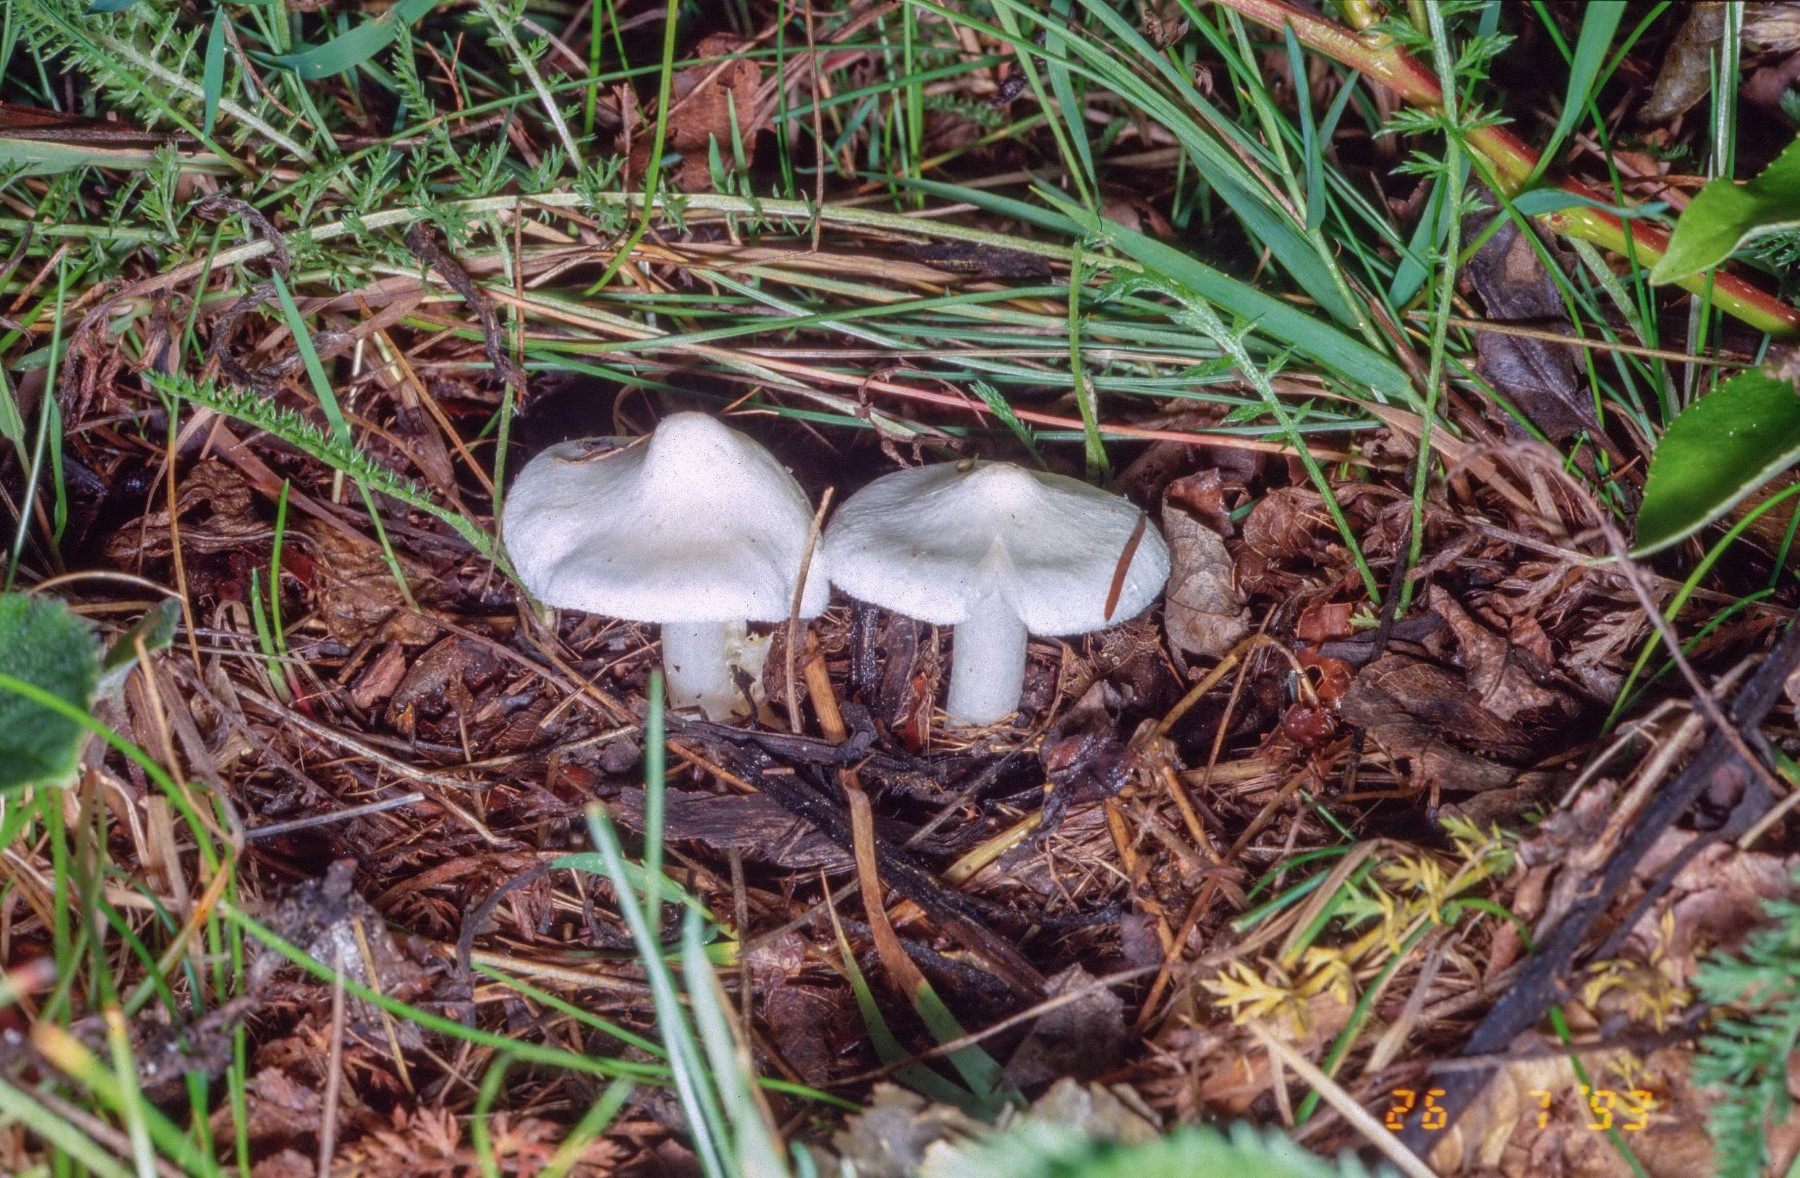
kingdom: Fungi
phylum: Basidiomycota
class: Agaricomycetes
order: Agaricales
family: Tricholomataceae
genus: Tricholoma
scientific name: Tricholoma argyraceum
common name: spids ridderhat
